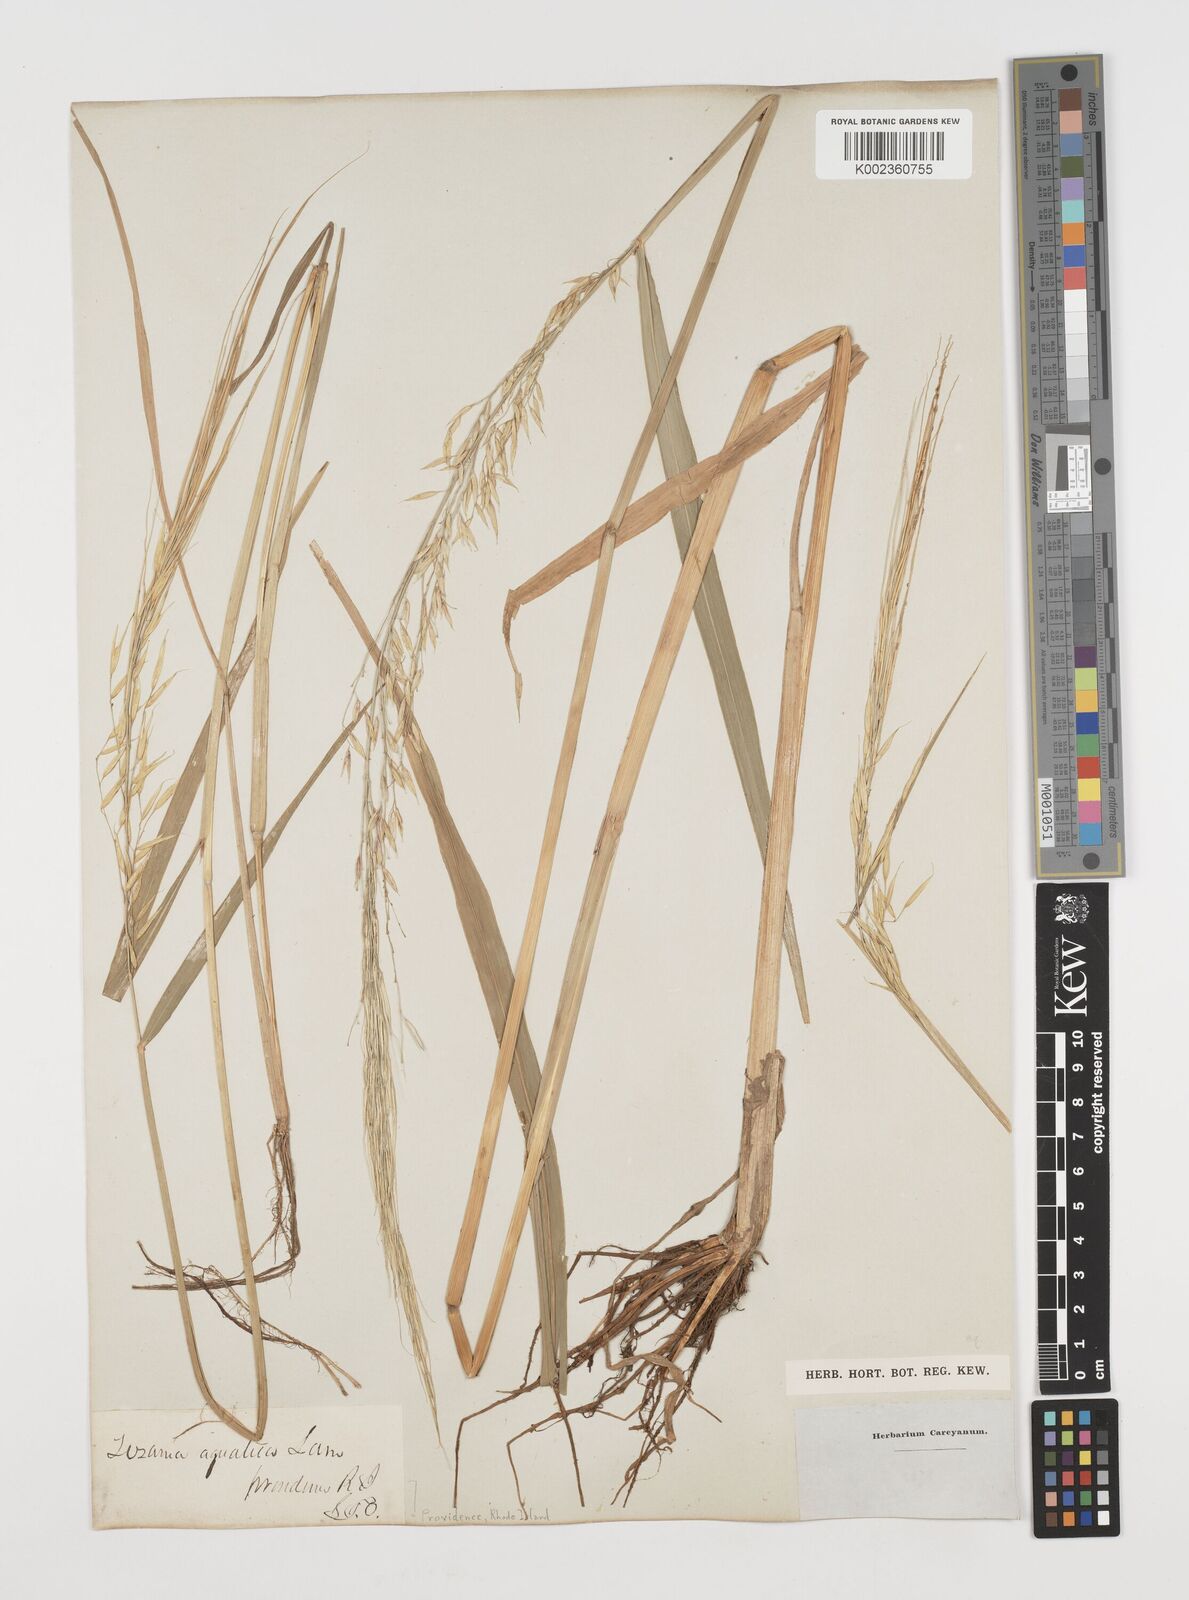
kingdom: Plantae
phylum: Tracheophyta
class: Liliopsida
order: Poales
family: Poaceae
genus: Zizania
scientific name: Zizania aquatica
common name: Annual wildrice
